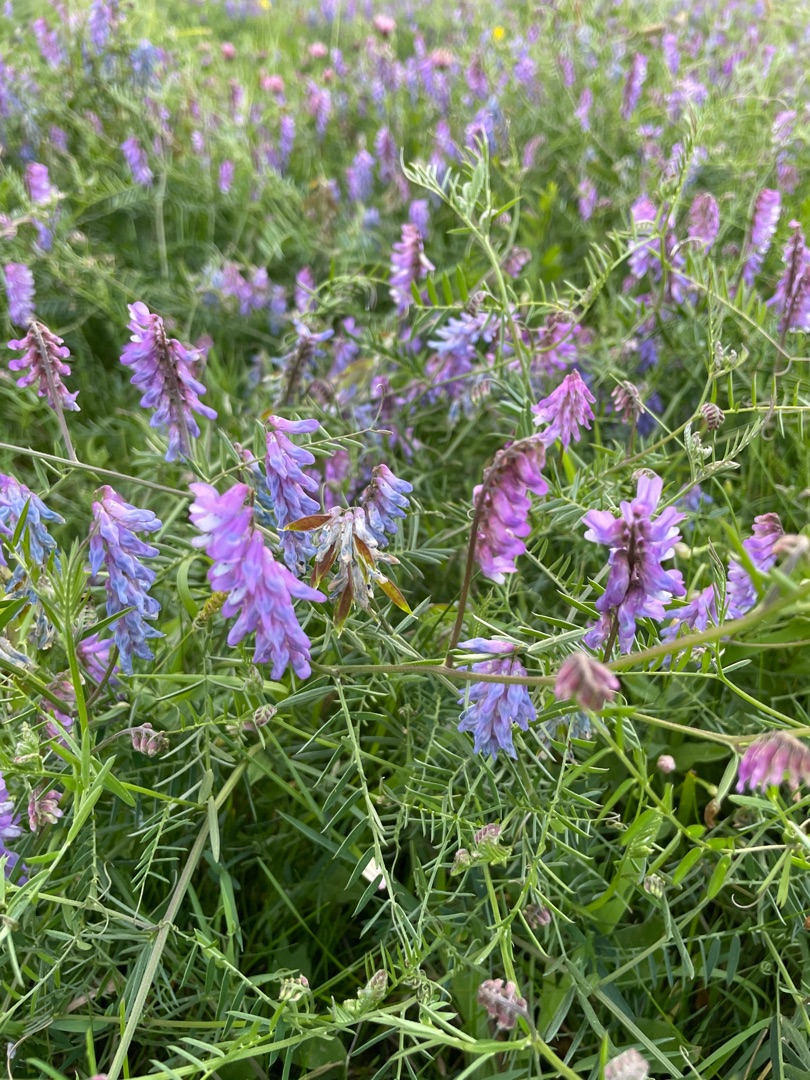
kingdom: Plantae
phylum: Tracheophyta
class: Magnoliopsida
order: Fabales
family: Fabaceae
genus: Vicia
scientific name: Vicia cracca
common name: Muse-vikke
